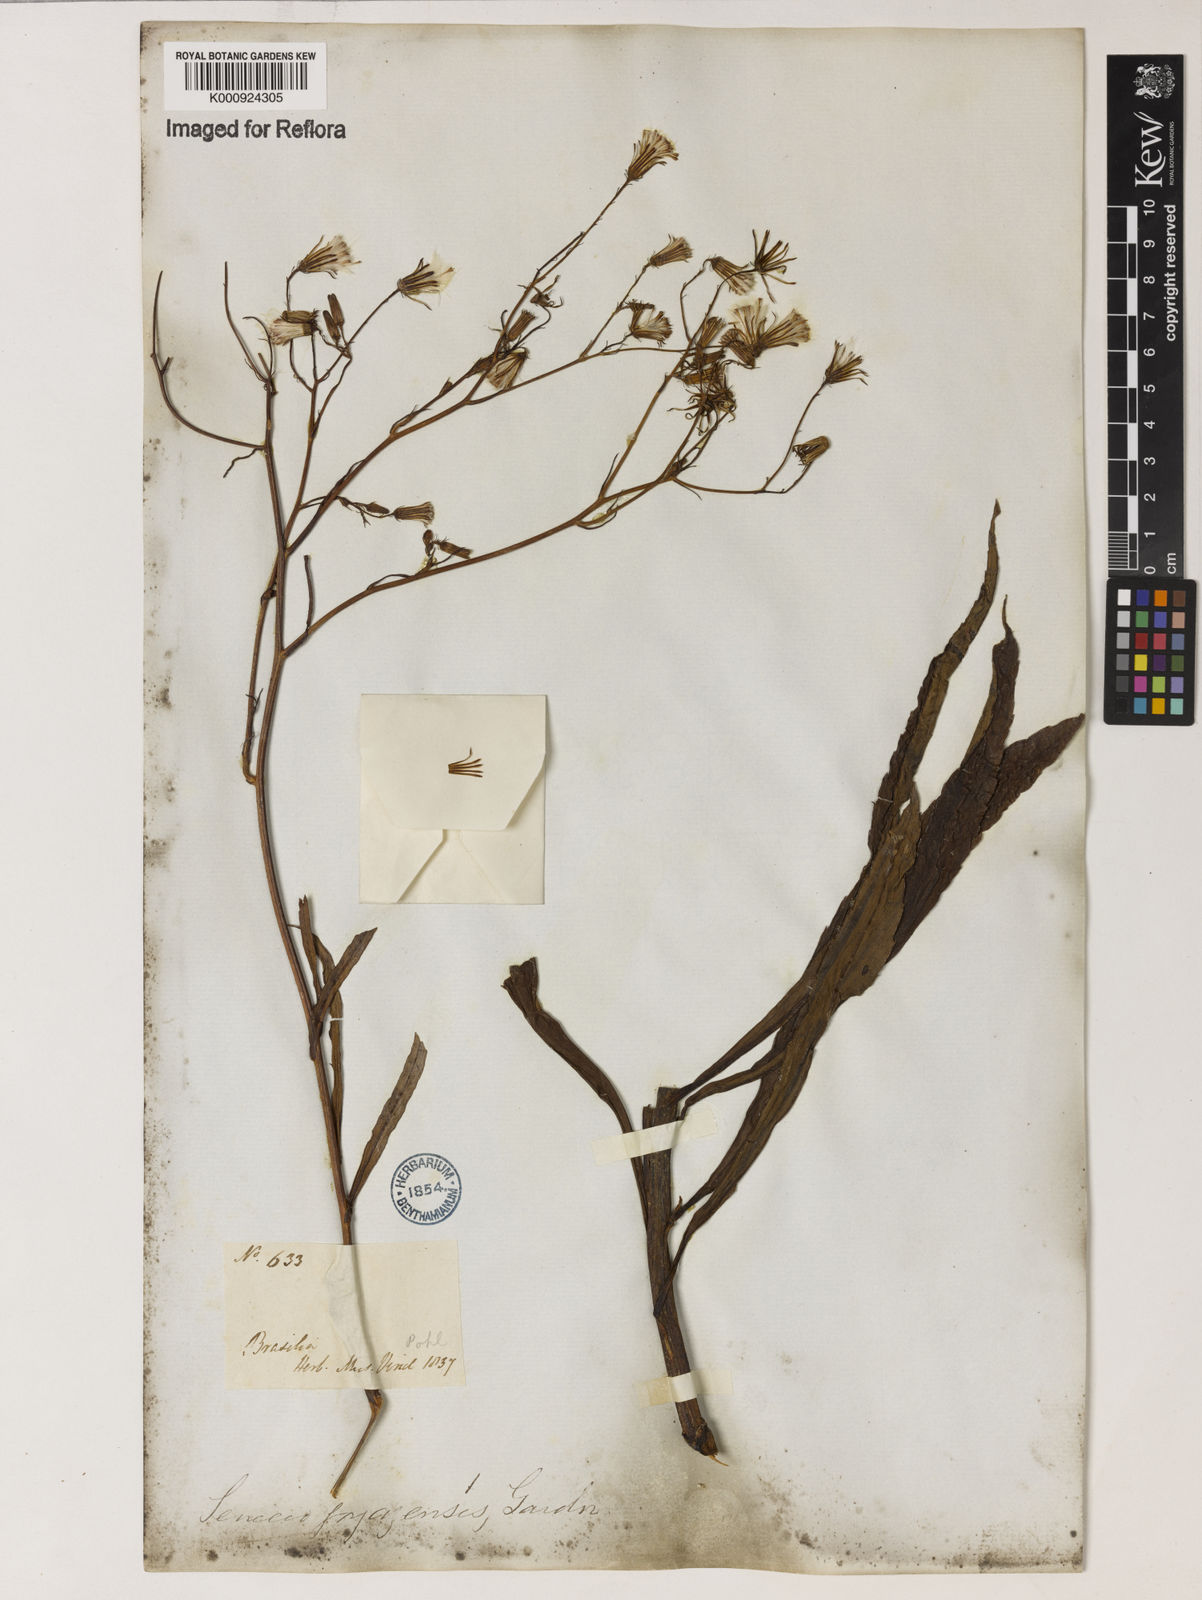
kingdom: Plantae
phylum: Tracheophyta
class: Magnoliopsida
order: Asterales
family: Asteraceae
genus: Erechtites
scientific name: Erechtites goyazensis
